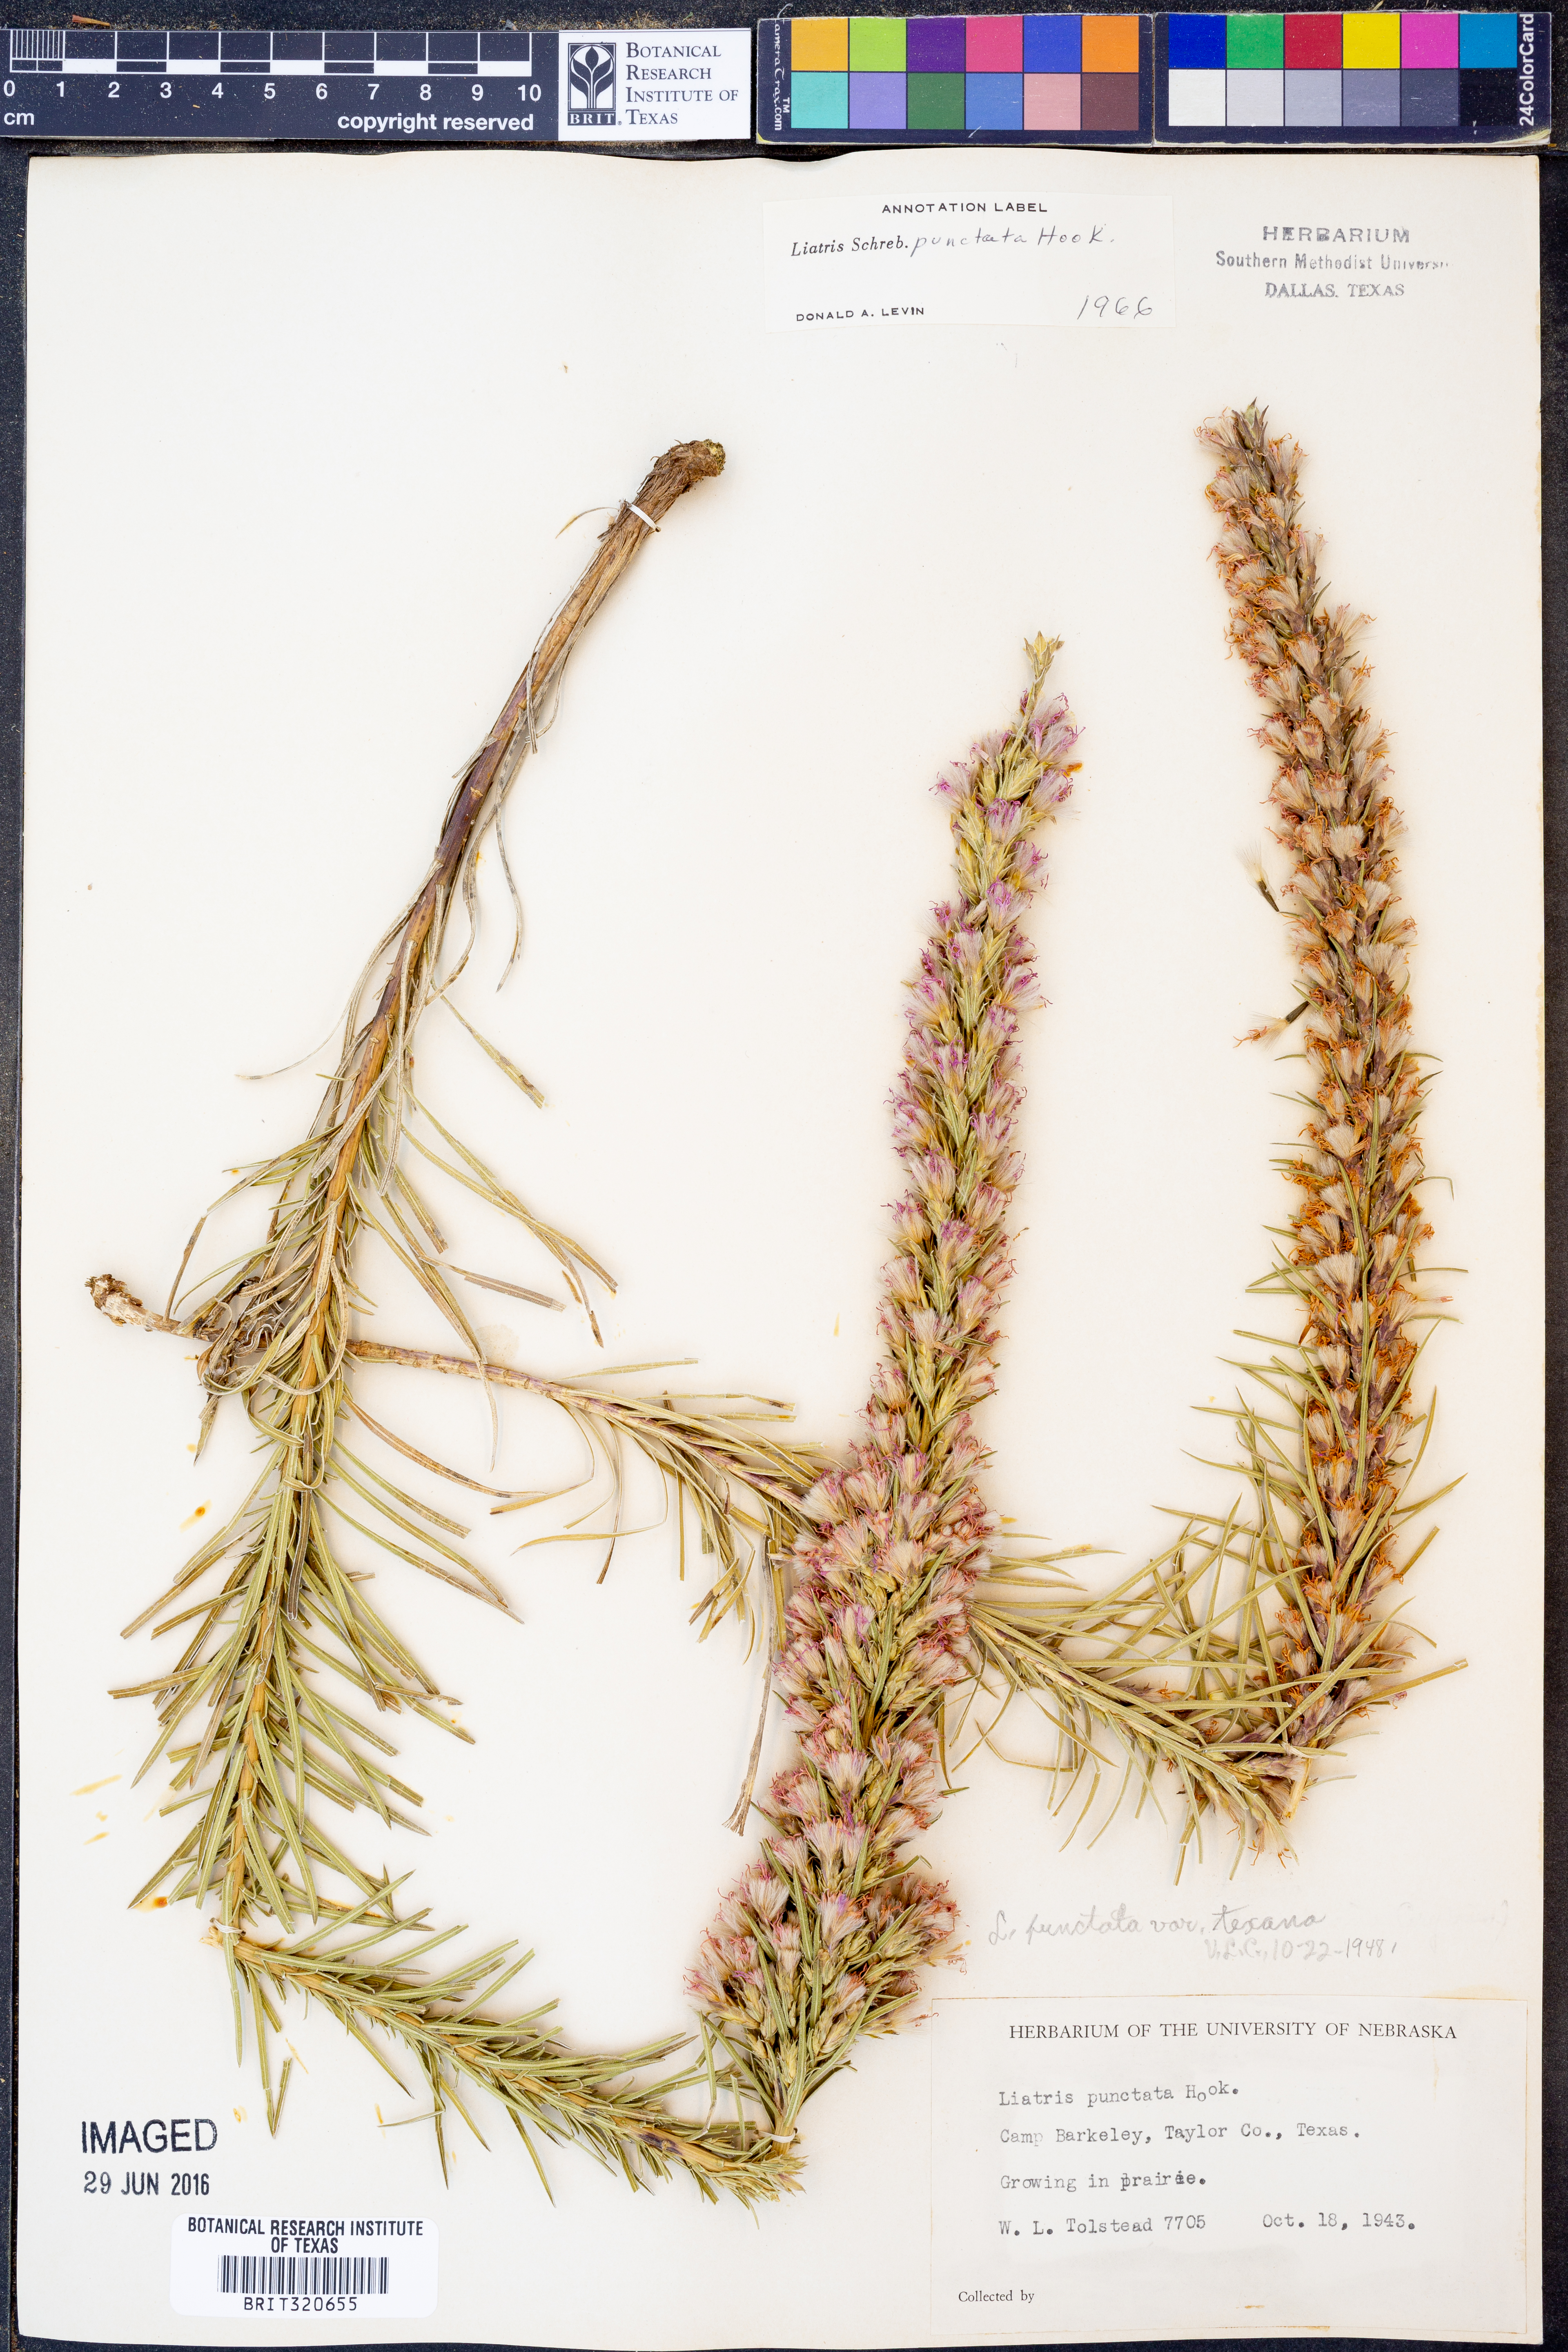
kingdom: Plantae
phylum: Tracheophyta
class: Magnoliopsida
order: Asterales
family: Asteraceae
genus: Liatris
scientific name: Liatris punctata
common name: Dotted gayfeather
